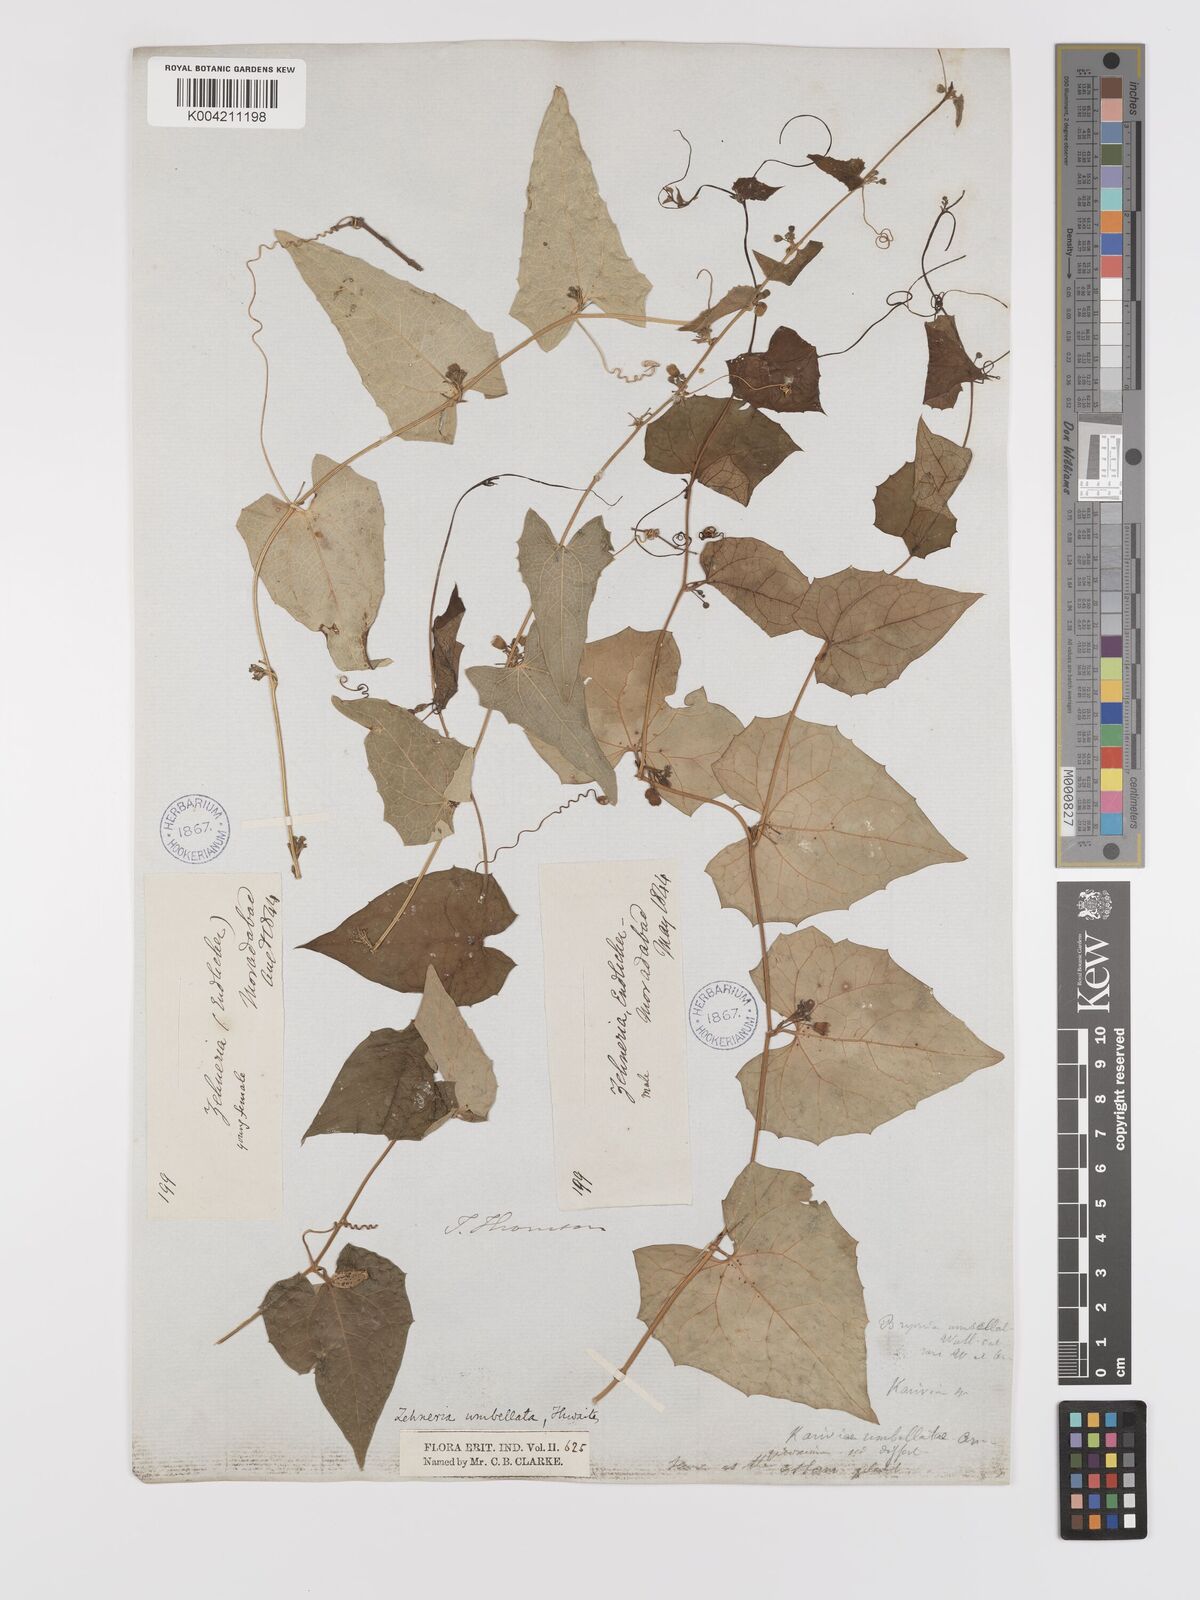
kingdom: Plantae
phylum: Tracheophyta
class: Magnoliopsida
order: Cucurbitales
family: Cucurbitaceae
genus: Solena
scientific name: Solena amplexicaulis
